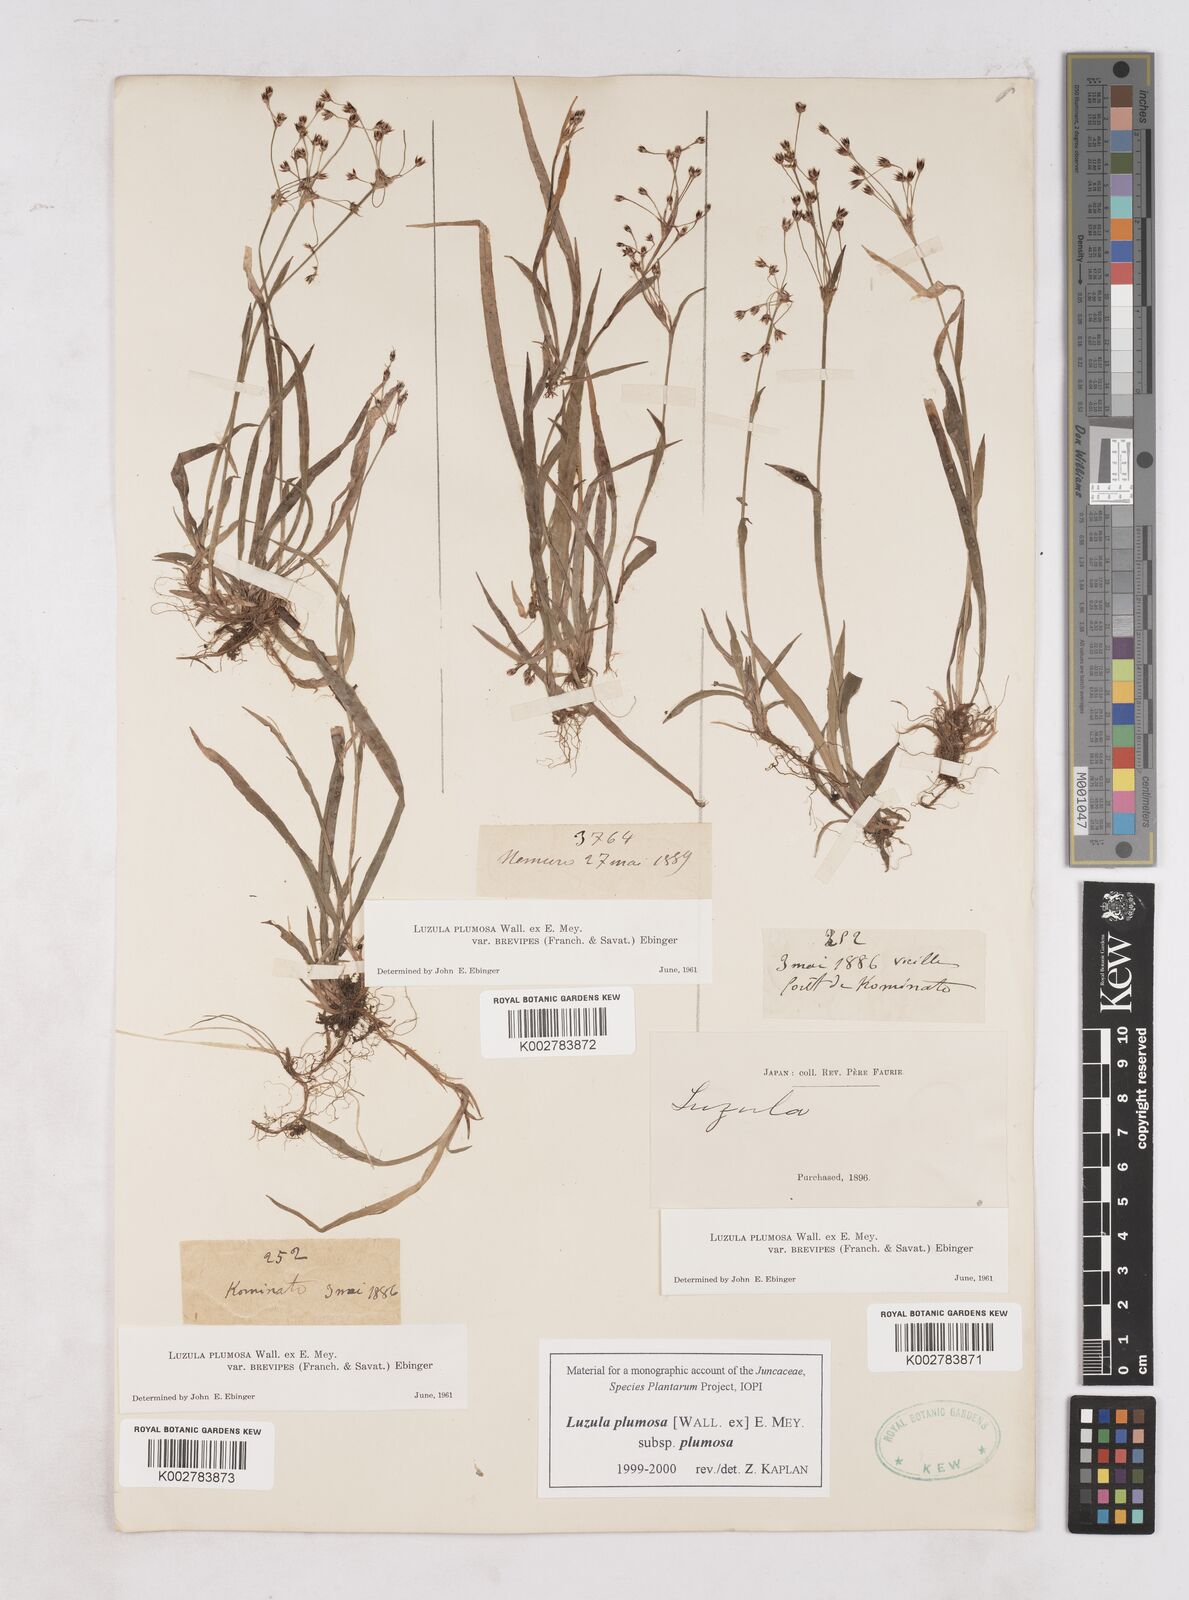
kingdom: Plantae
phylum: Tracheophyta
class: Liliopsida
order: Poales
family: Juncaceae
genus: Luzula
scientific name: Luzula plumosa
